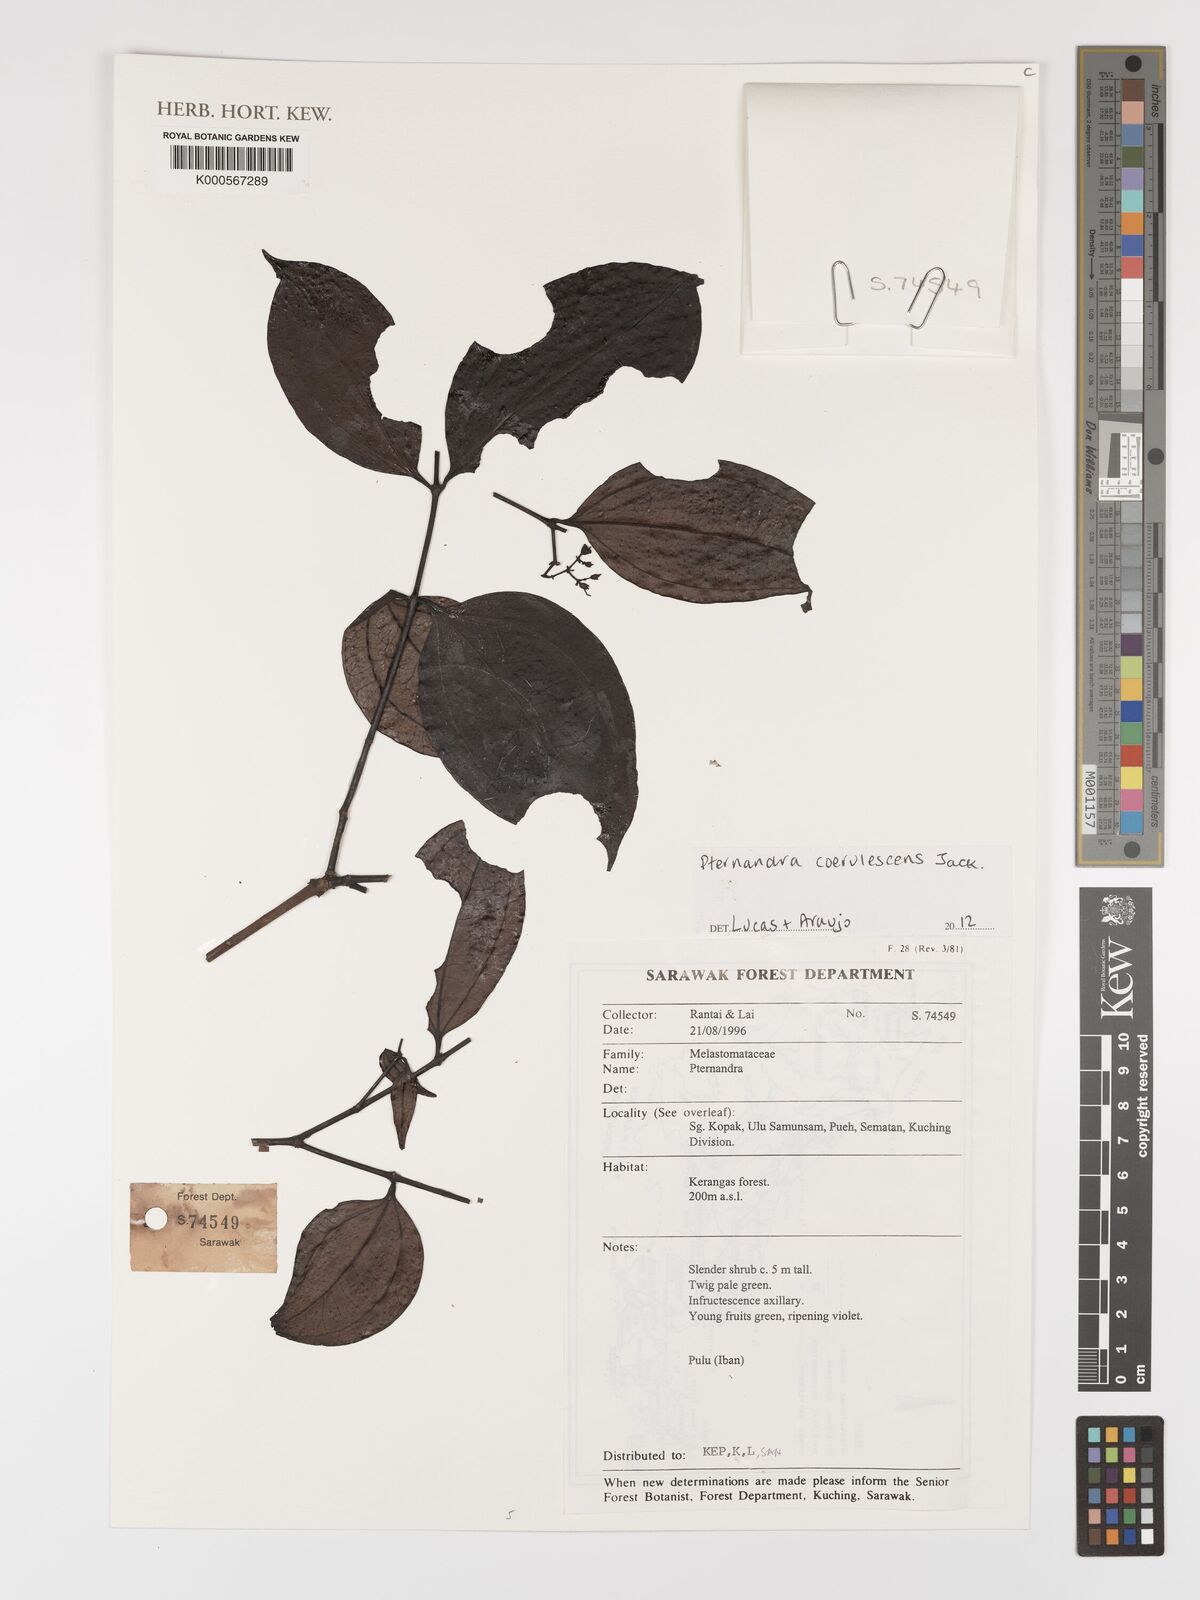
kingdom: Plantae
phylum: Tracheophyta
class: Magnoliopsida
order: Myrtales
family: Melastomataceae
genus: Pternandra
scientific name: Pternandra
